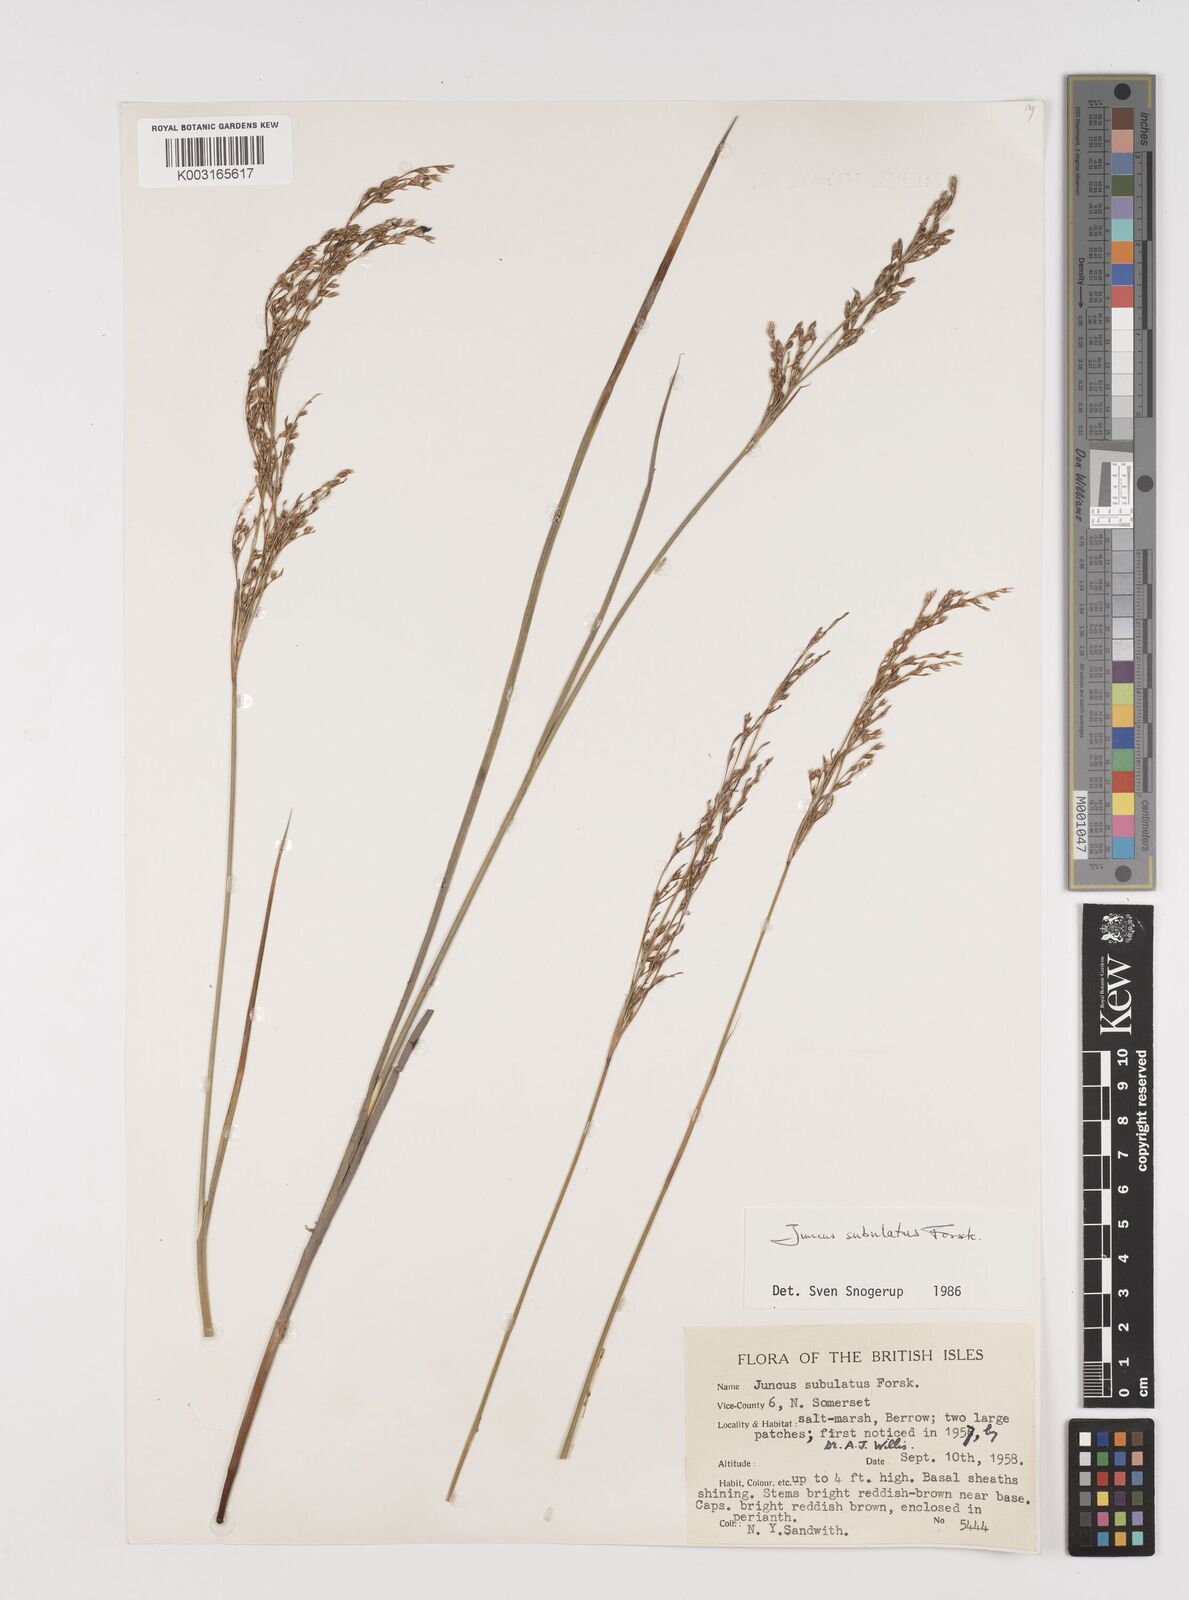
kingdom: Plantae
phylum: Tracheophyta
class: Liliopsida
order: Poales
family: Juncaceae
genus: Juncus
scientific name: Juncus subulatus
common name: Somerset rush
